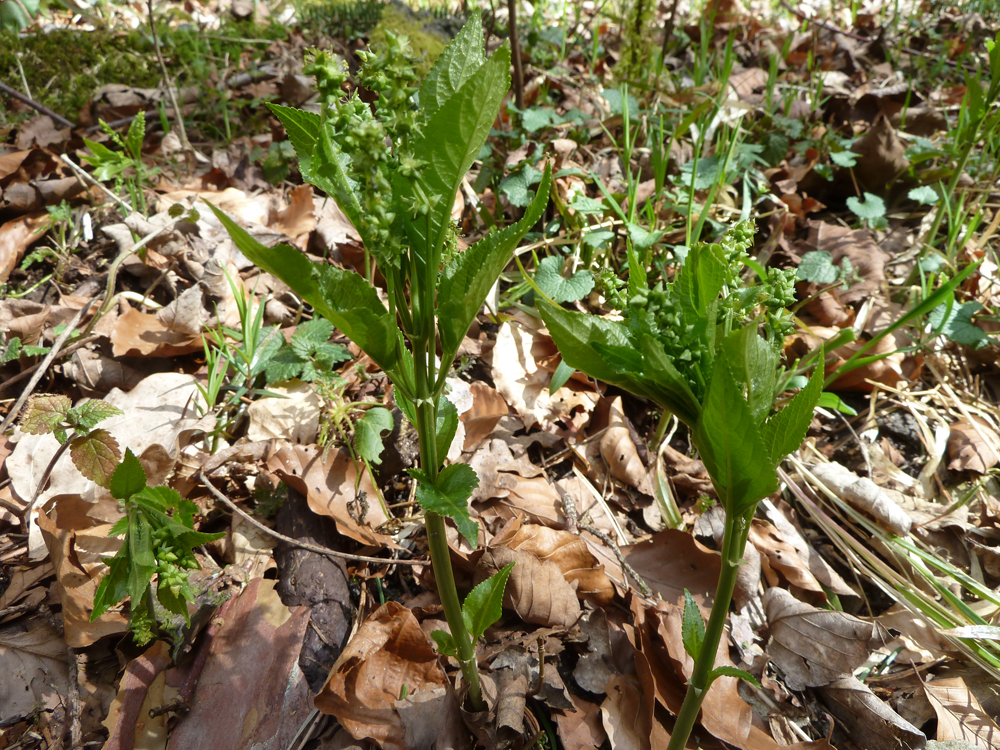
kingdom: Plantae
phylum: Tracheophyta
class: Magnoliopsida
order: Malpighiales
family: Euphorbiaceae
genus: Mercurialis
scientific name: Mercurialis perennis
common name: Dog mercury
